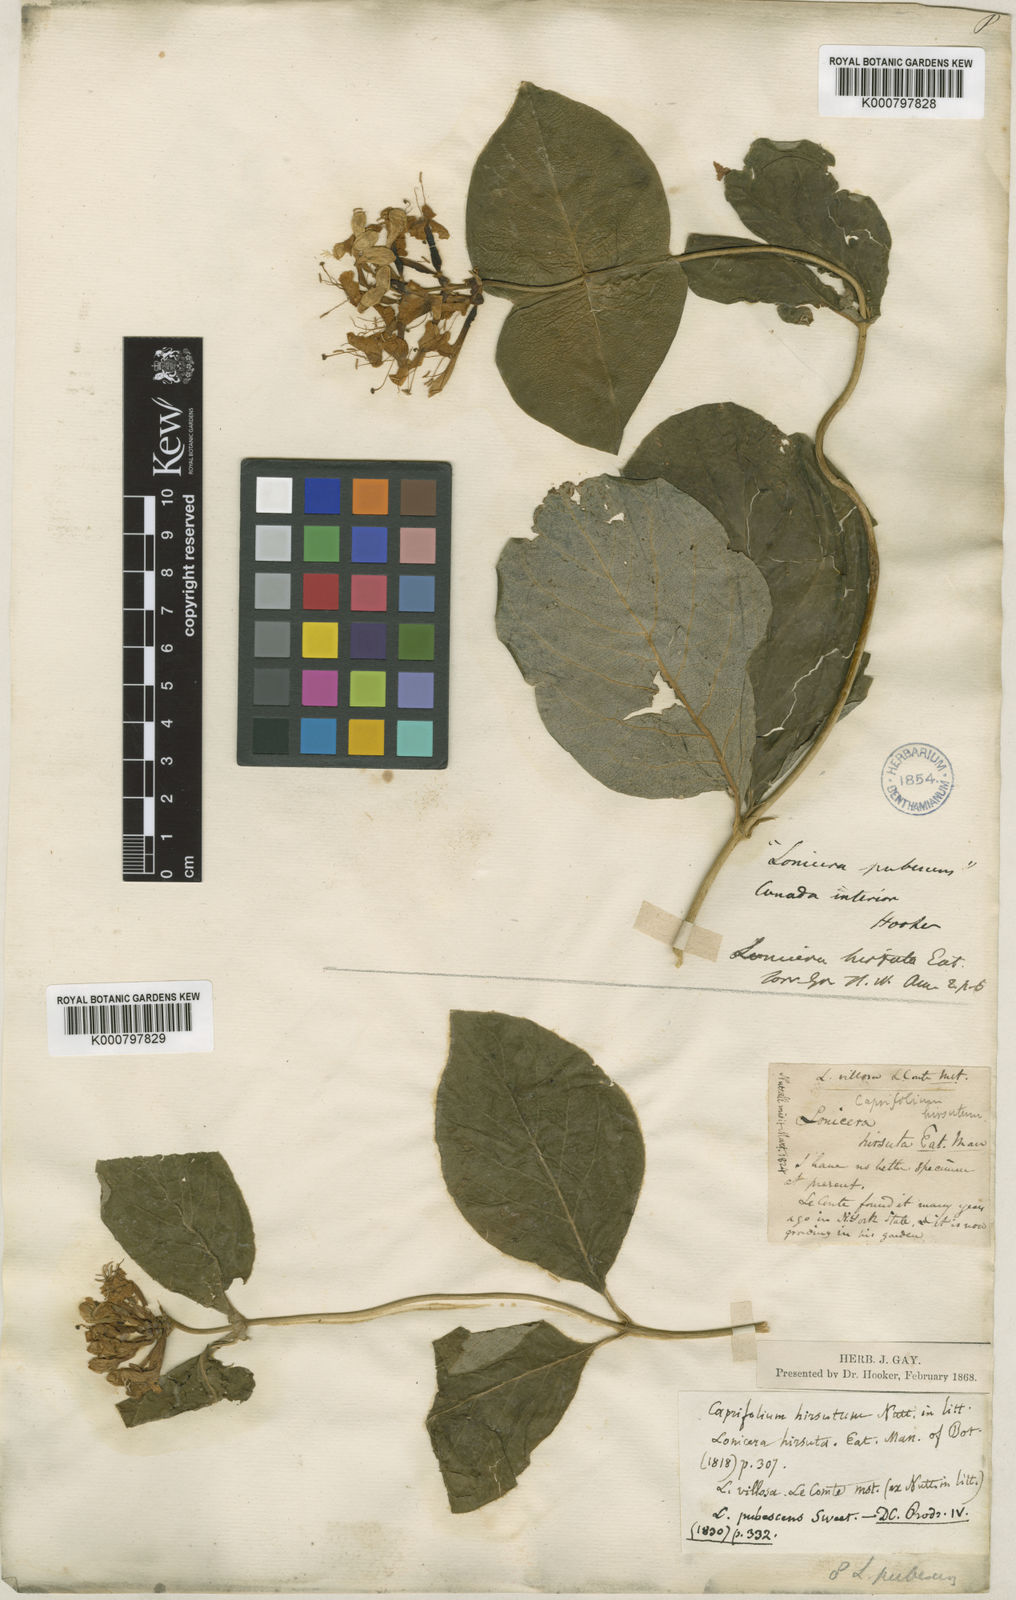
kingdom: Plantae
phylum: Tracheophyta
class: Magnoliopsida
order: Dipsacales
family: Caprifoliaceae
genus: Lonicera
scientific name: Lonicera hirsuta
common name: Hairy honeysuckle
